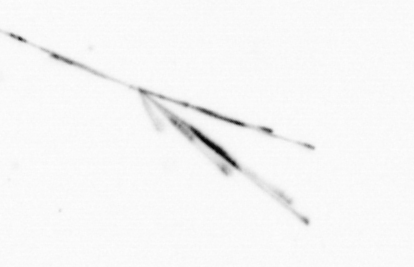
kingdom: Chromista
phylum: Ochrophyta
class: Bacillariophyceae
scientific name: Bacillariophyceae
